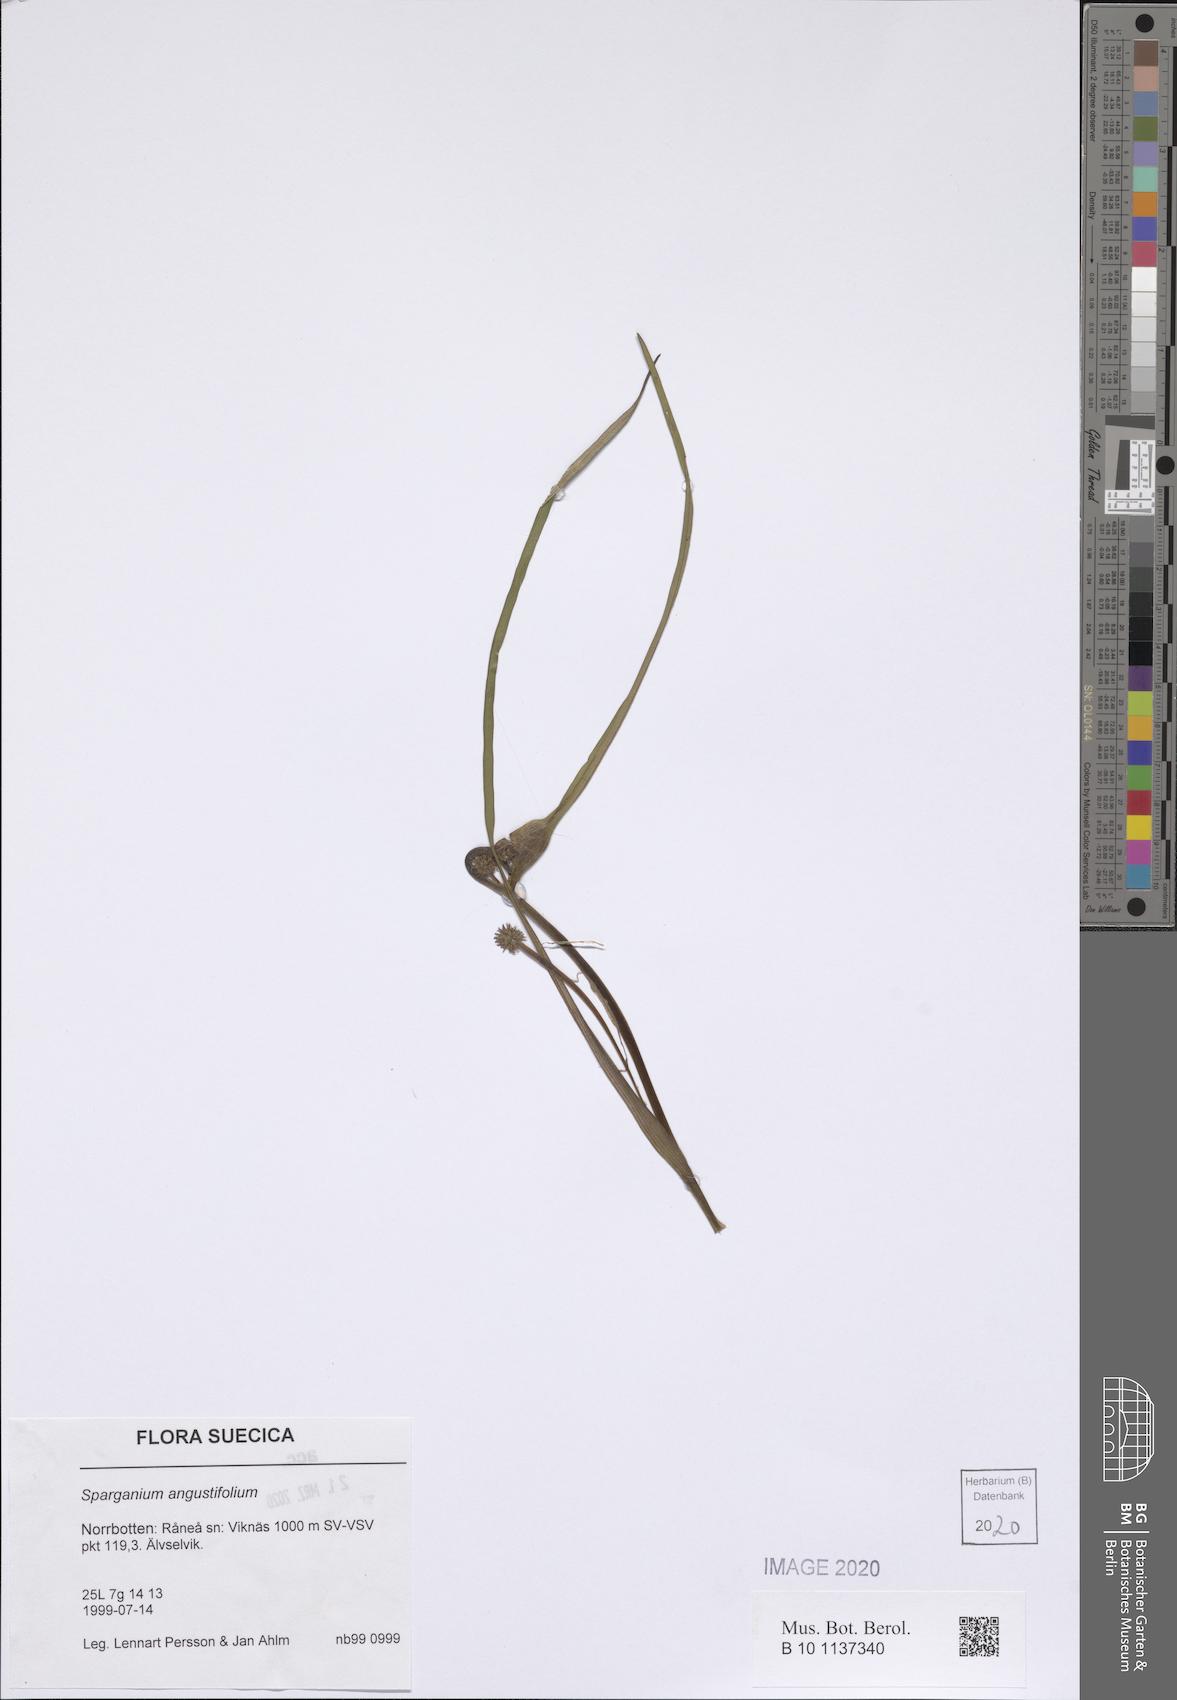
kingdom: Plantae
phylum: Tracheophyta
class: Liliopsida
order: Poales
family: Typhaceae
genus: Sparganium
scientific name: Sparganium angustifolium
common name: Floating bur-reed
